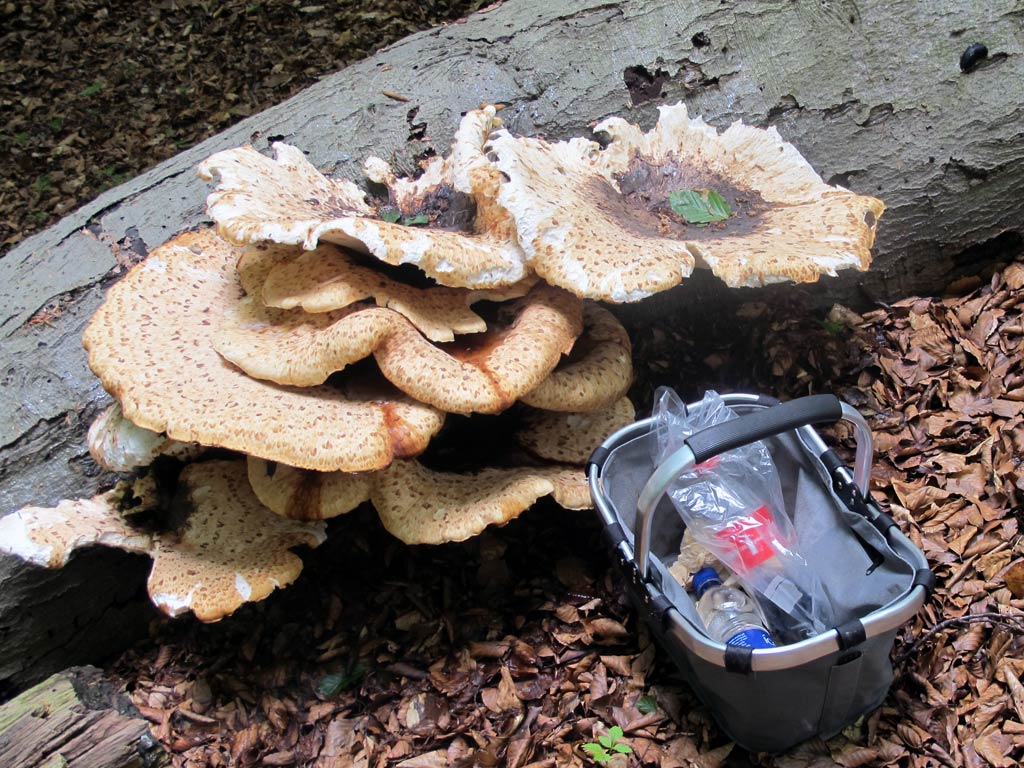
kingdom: Fungi
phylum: Basidiomycota
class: Agaricomycetes
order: Polyporales
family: Polyporaceae
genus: Cerioporus
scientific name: Cerioporus squamosus
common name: skællet stilkporesvamp
